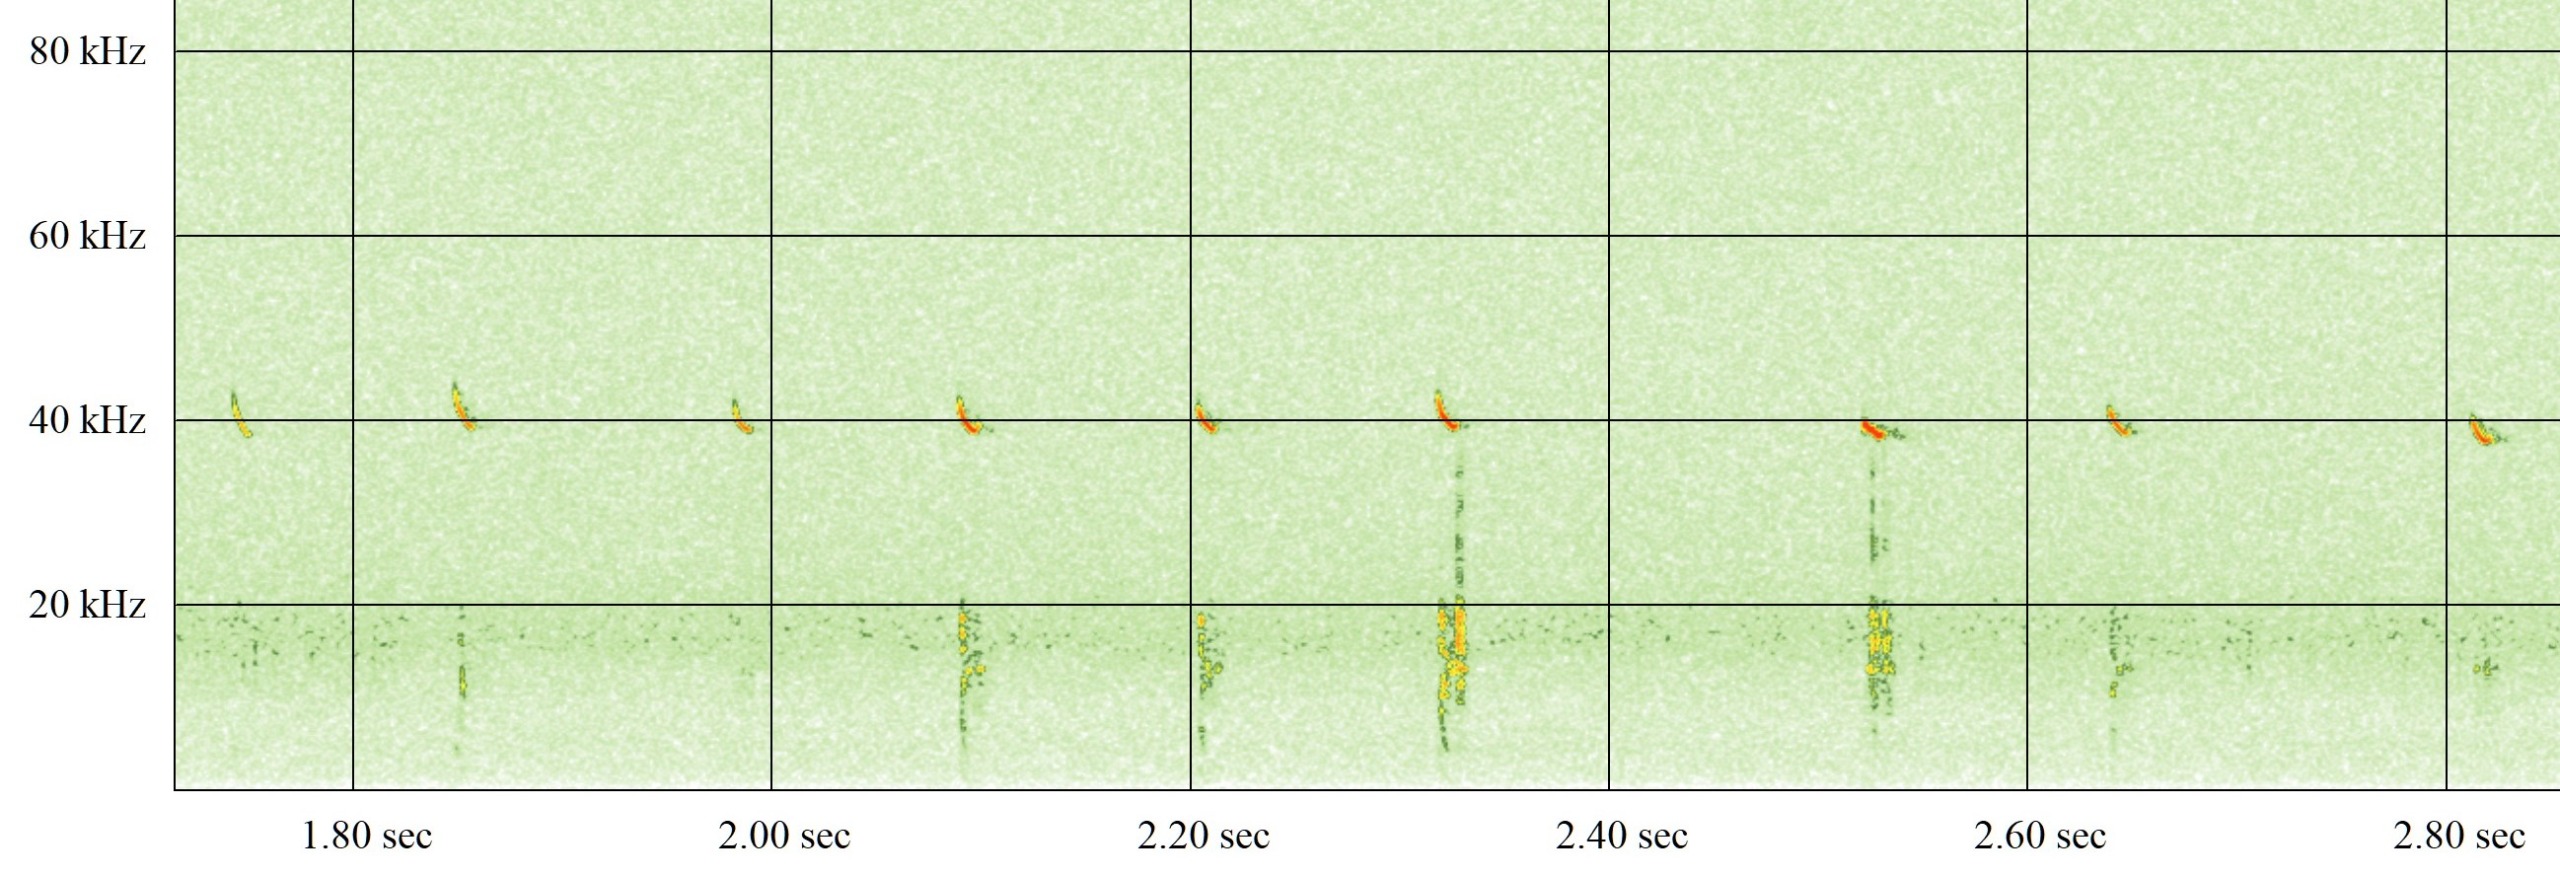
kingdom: Animalia
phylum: Chordata
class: Mammalia
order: Chiroptera
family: Vespertilionidae
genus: Pipistrellus
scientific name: Pipistrellus nathusii
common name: Troldflagermus
